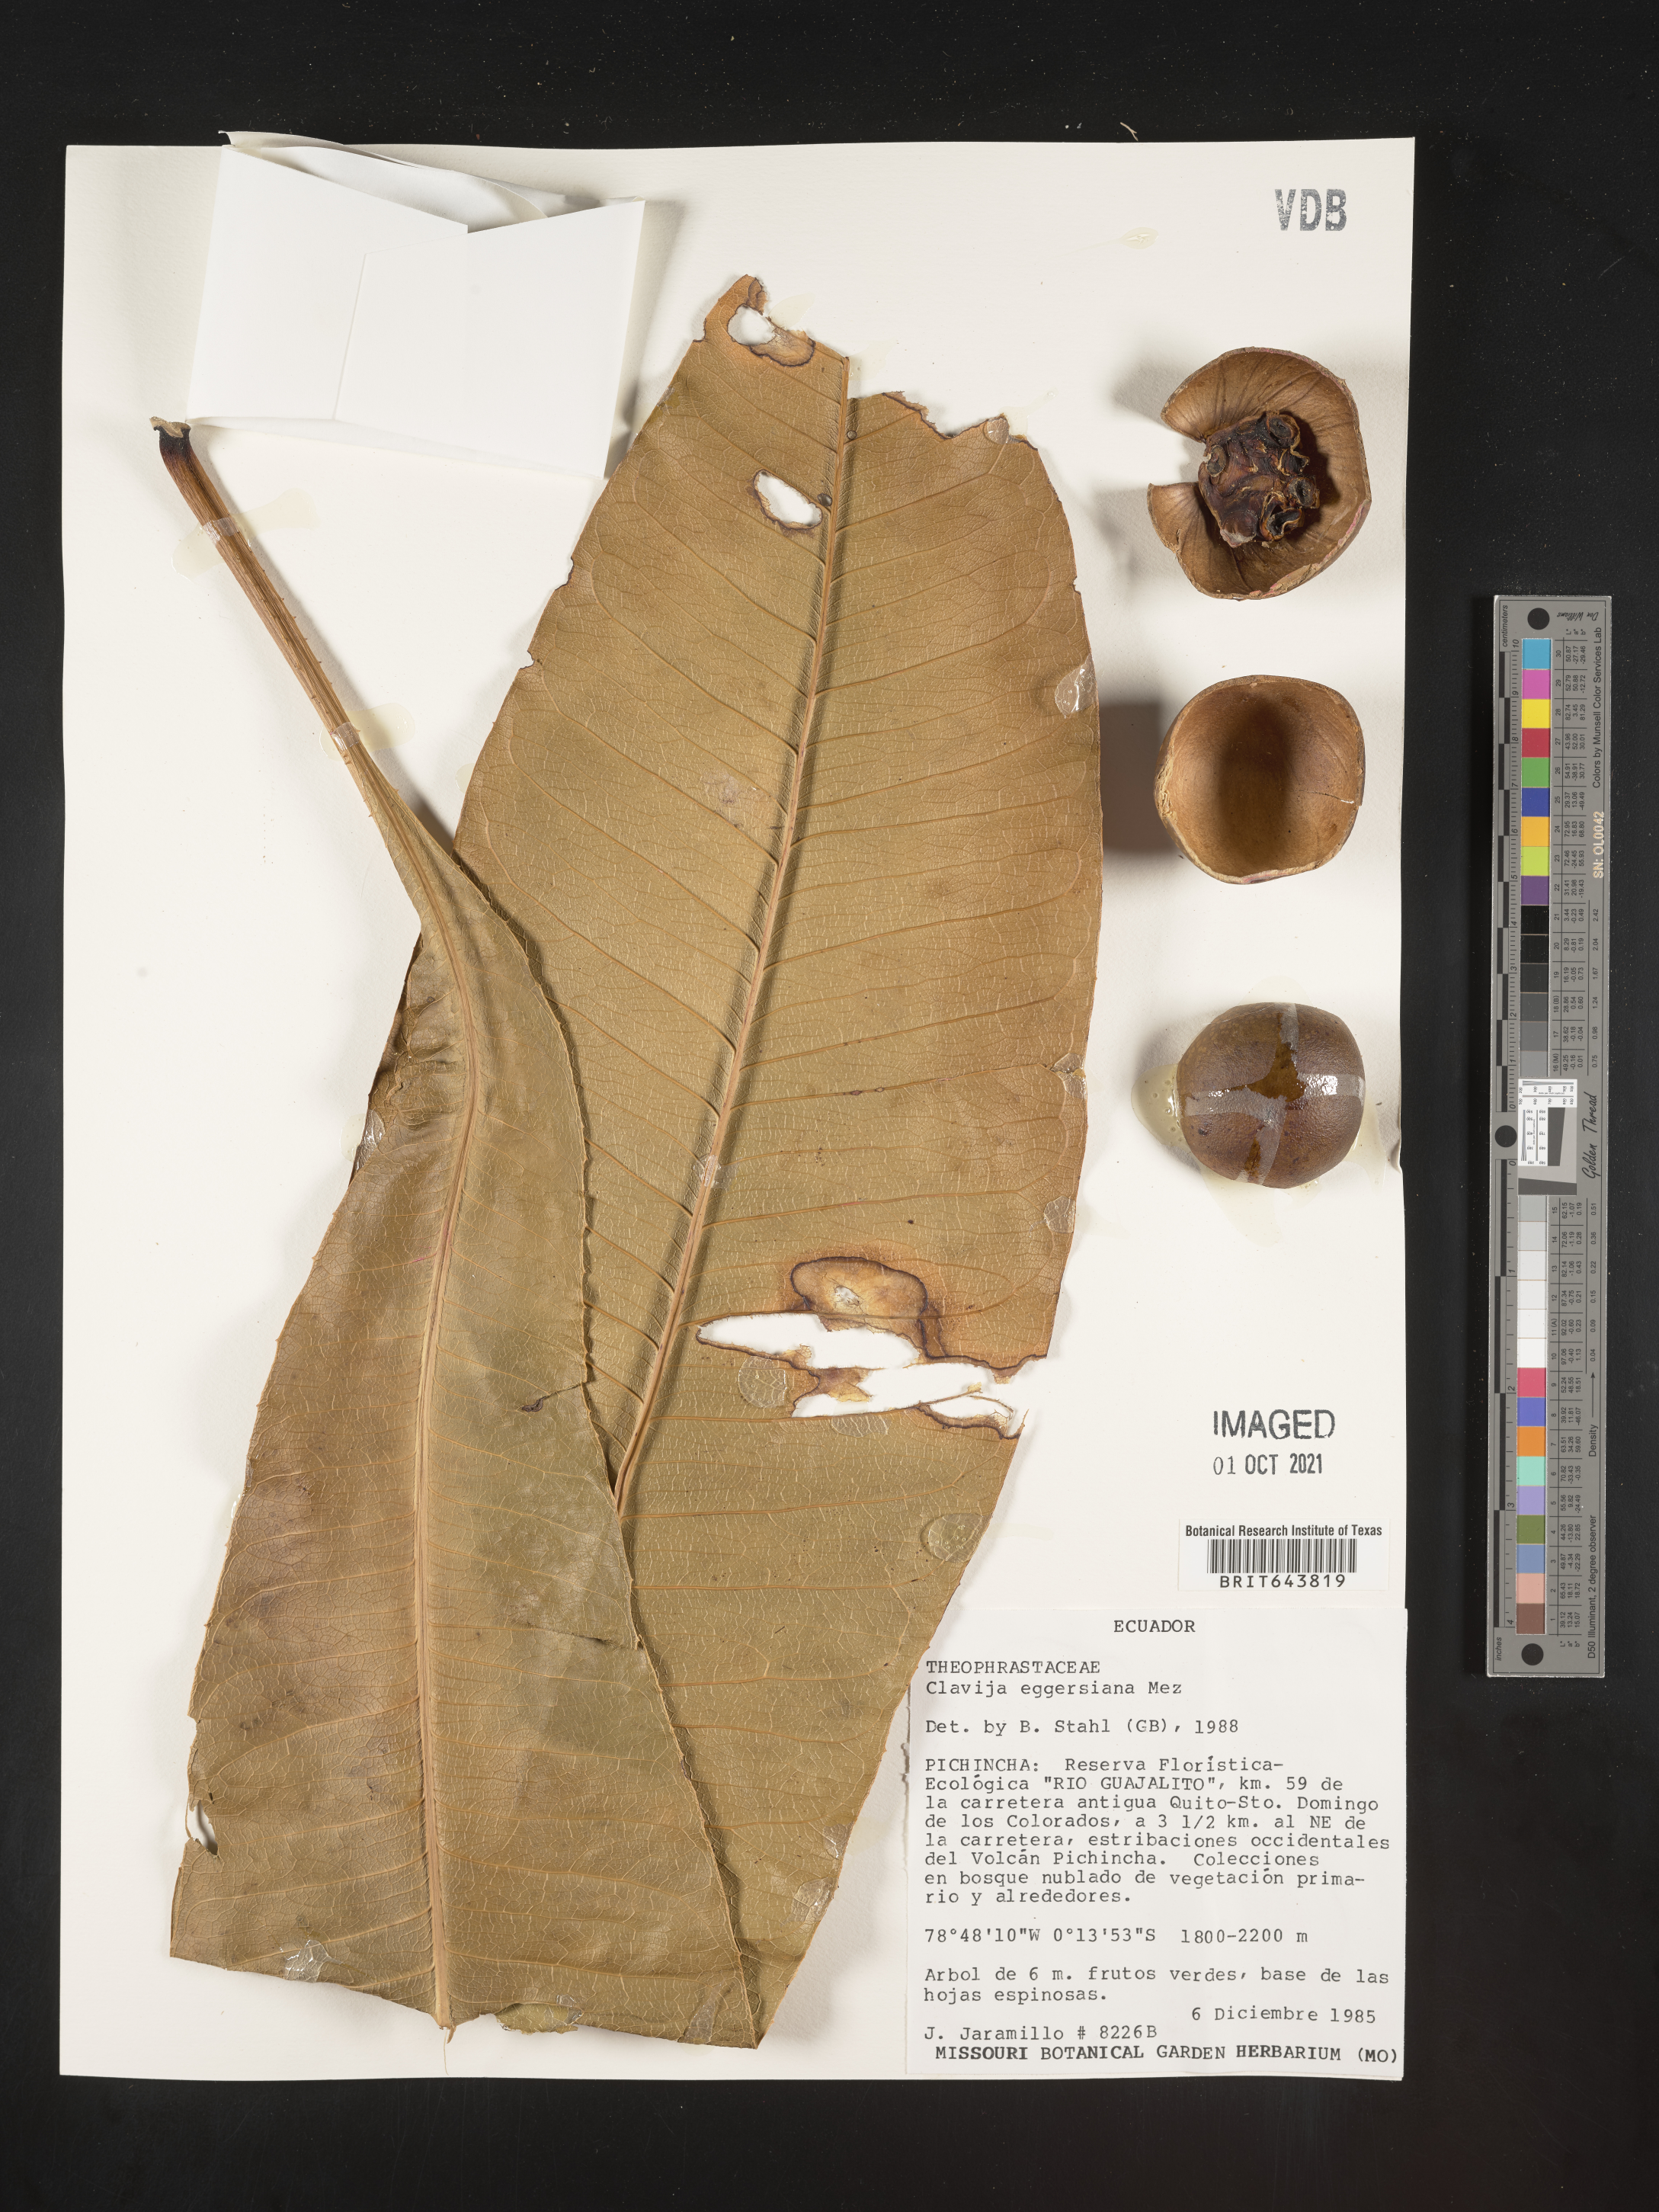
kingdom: Plantae
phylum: Tracheophyta
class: Magnoliopsida
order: Ericales
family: Primulaceae
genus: Clavija
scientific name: Clavija
